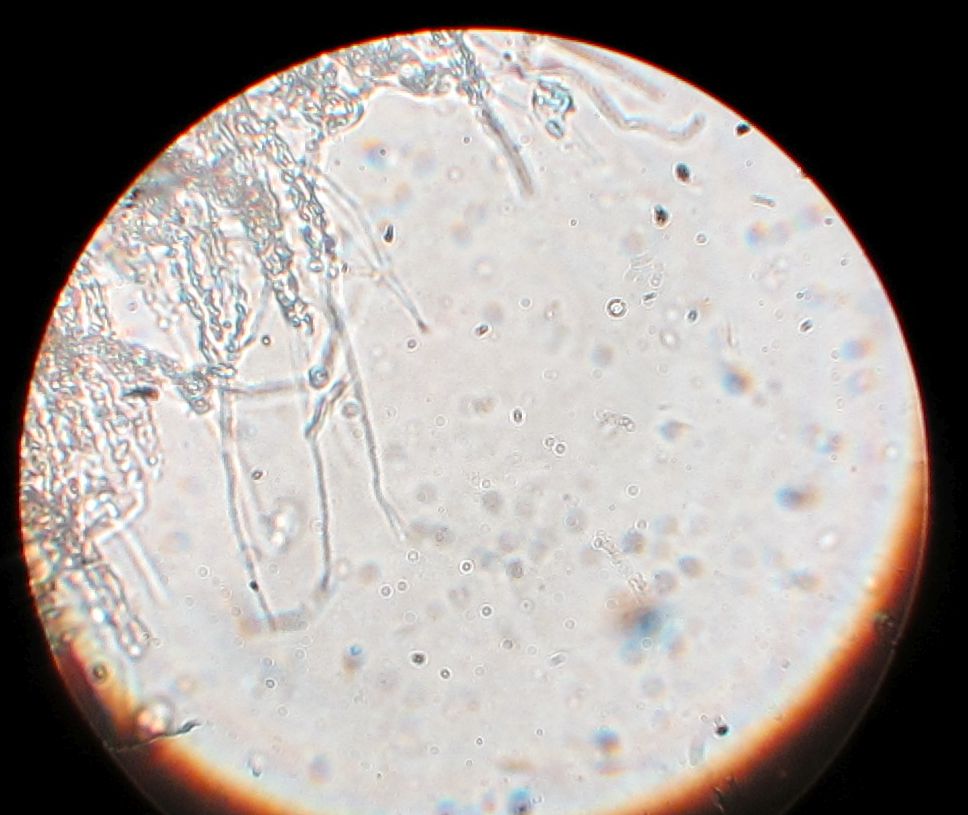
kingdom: Fungi
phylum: Basidiomycota
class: Agaricomycetes
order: Agaricales
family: Niaceae
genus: Flagelloscypha
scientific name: Flagelloscypha minutissima
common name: lille hængeskål
